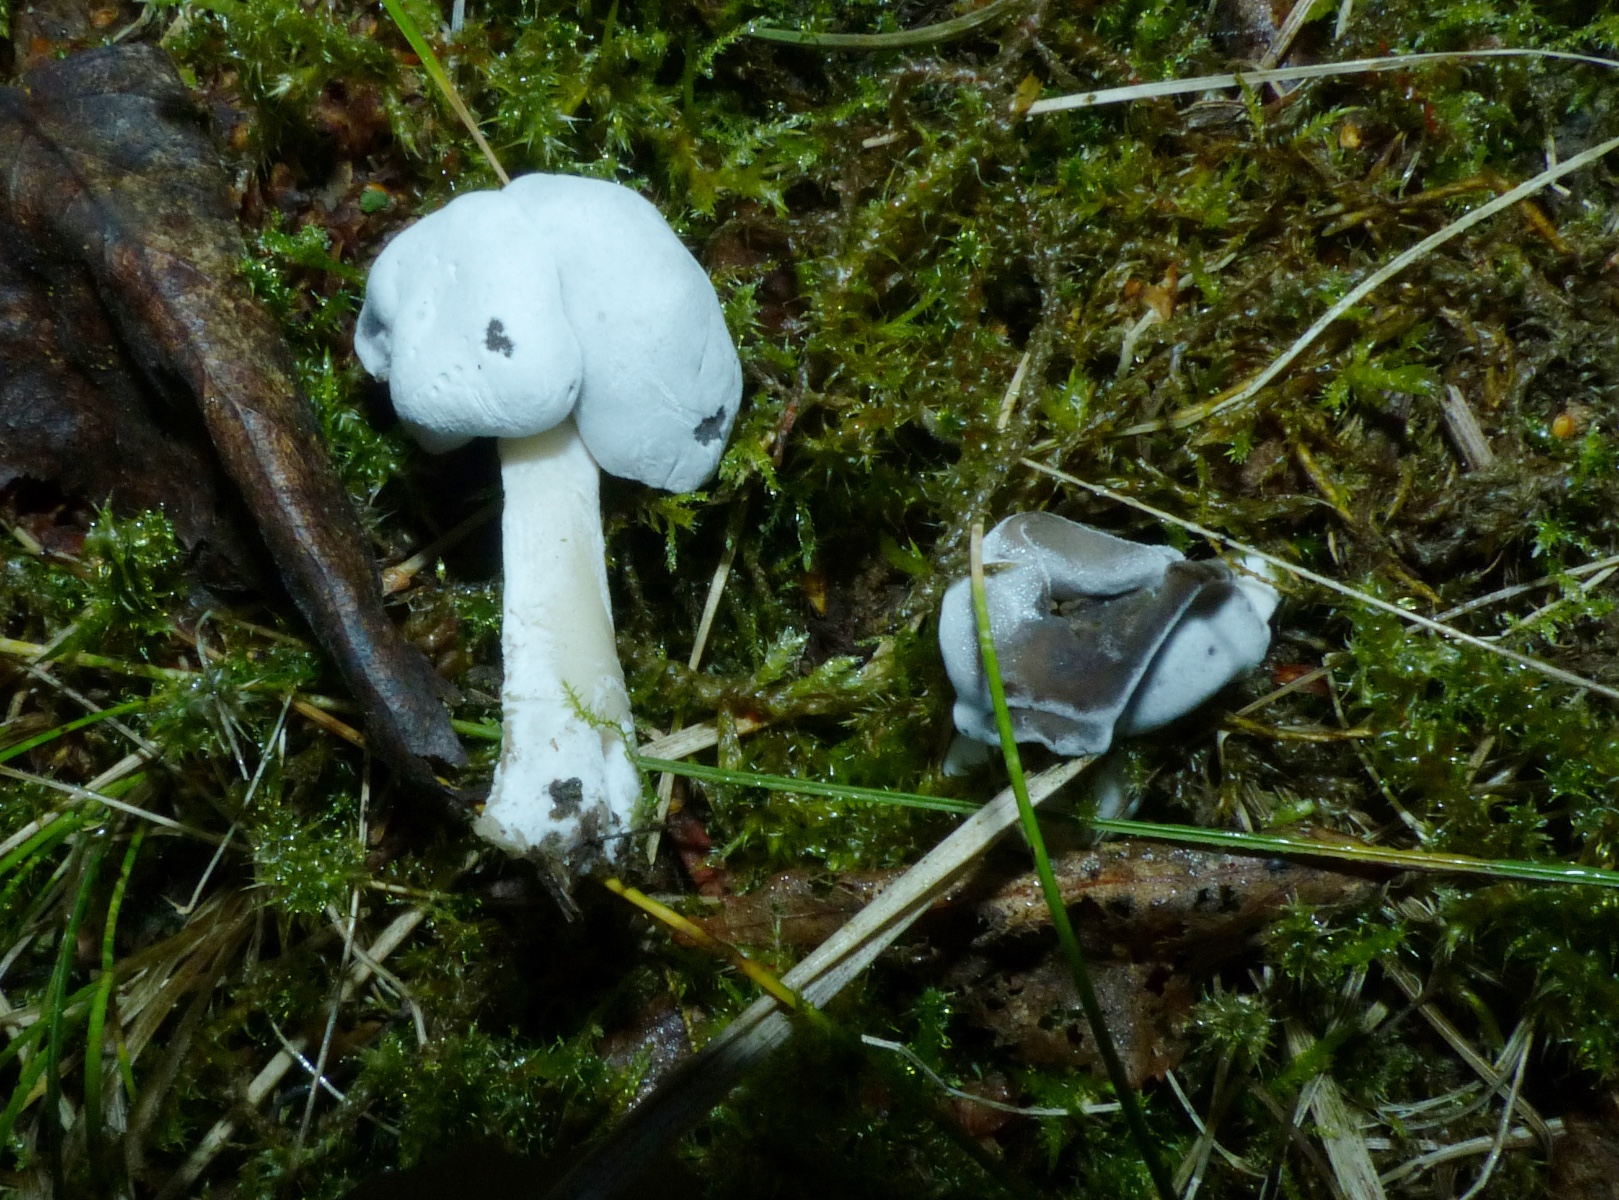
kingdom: Fungi
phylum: Ascomycota
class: Sordariomycetes
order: Hypocreales
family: Hypocreaceae
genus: Hypomyces
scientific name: Hypomyces cervinus
